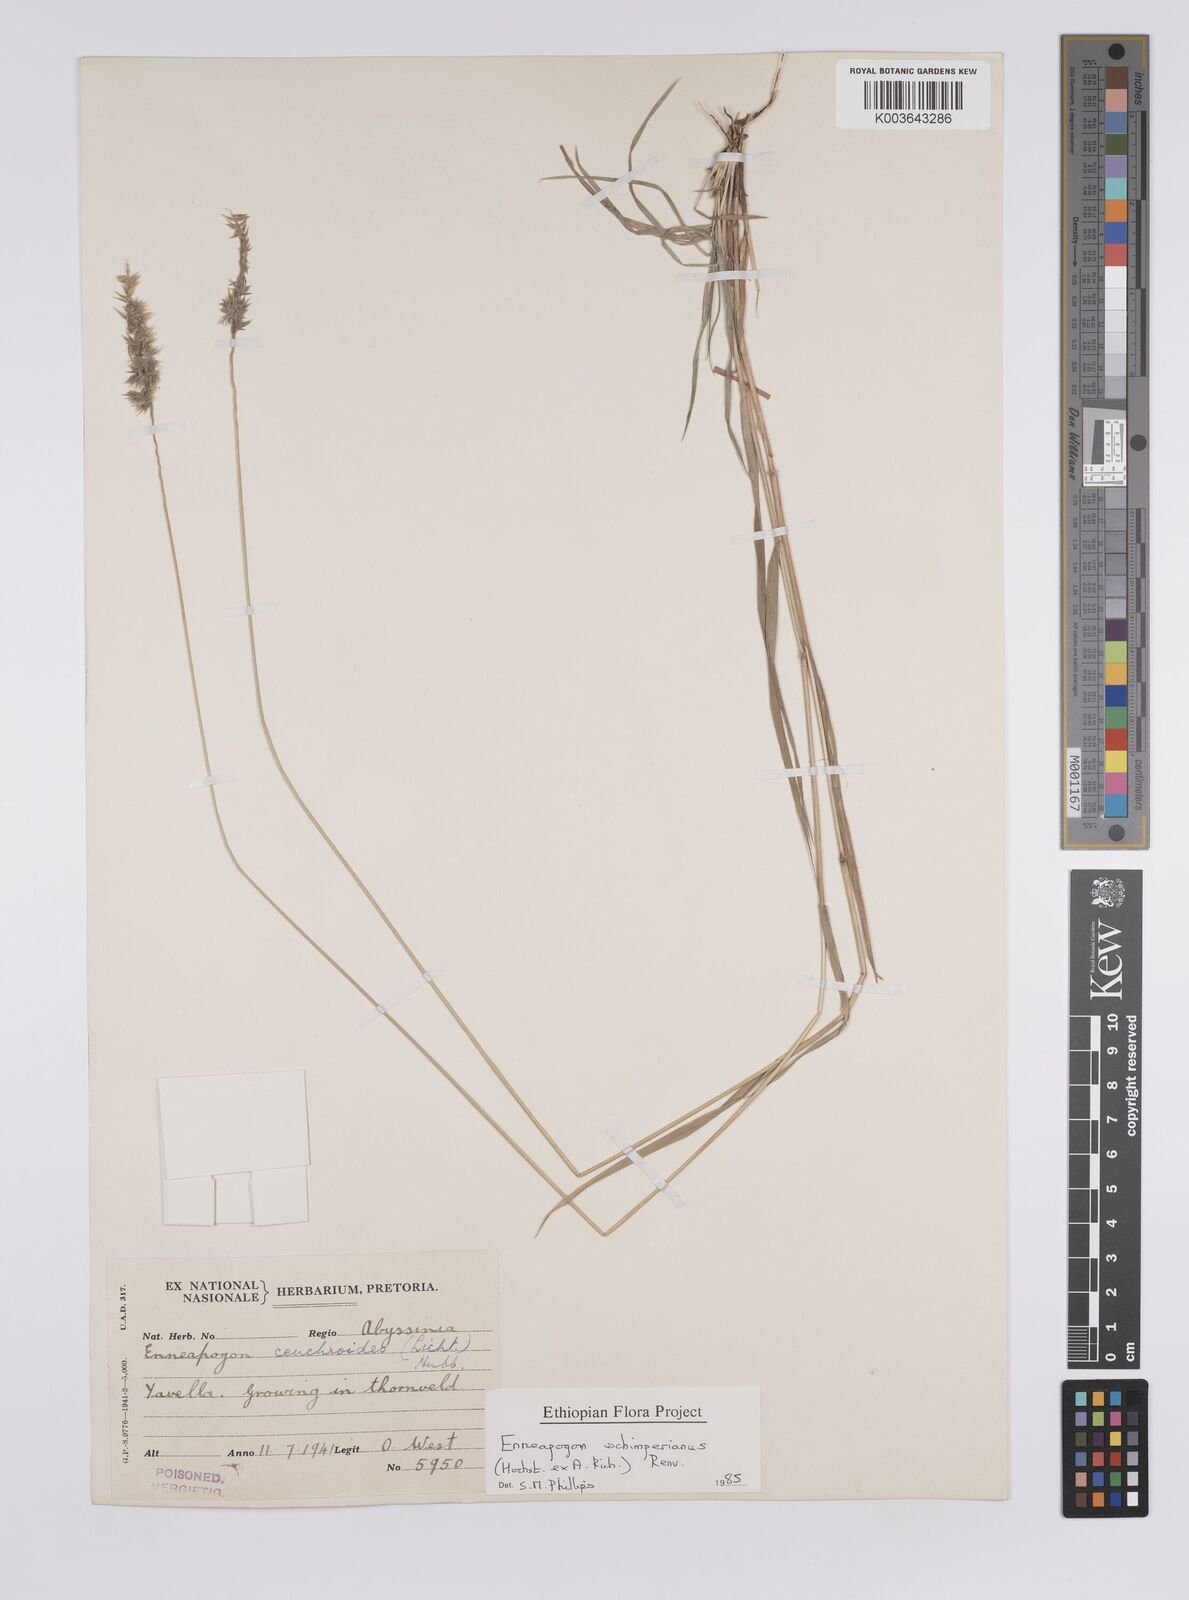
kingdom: Plantae
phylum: Tracheophyta
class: Liliopsida
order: Poales
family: Poaceae
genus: Enneapogon
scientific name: Enneapogon persicus
